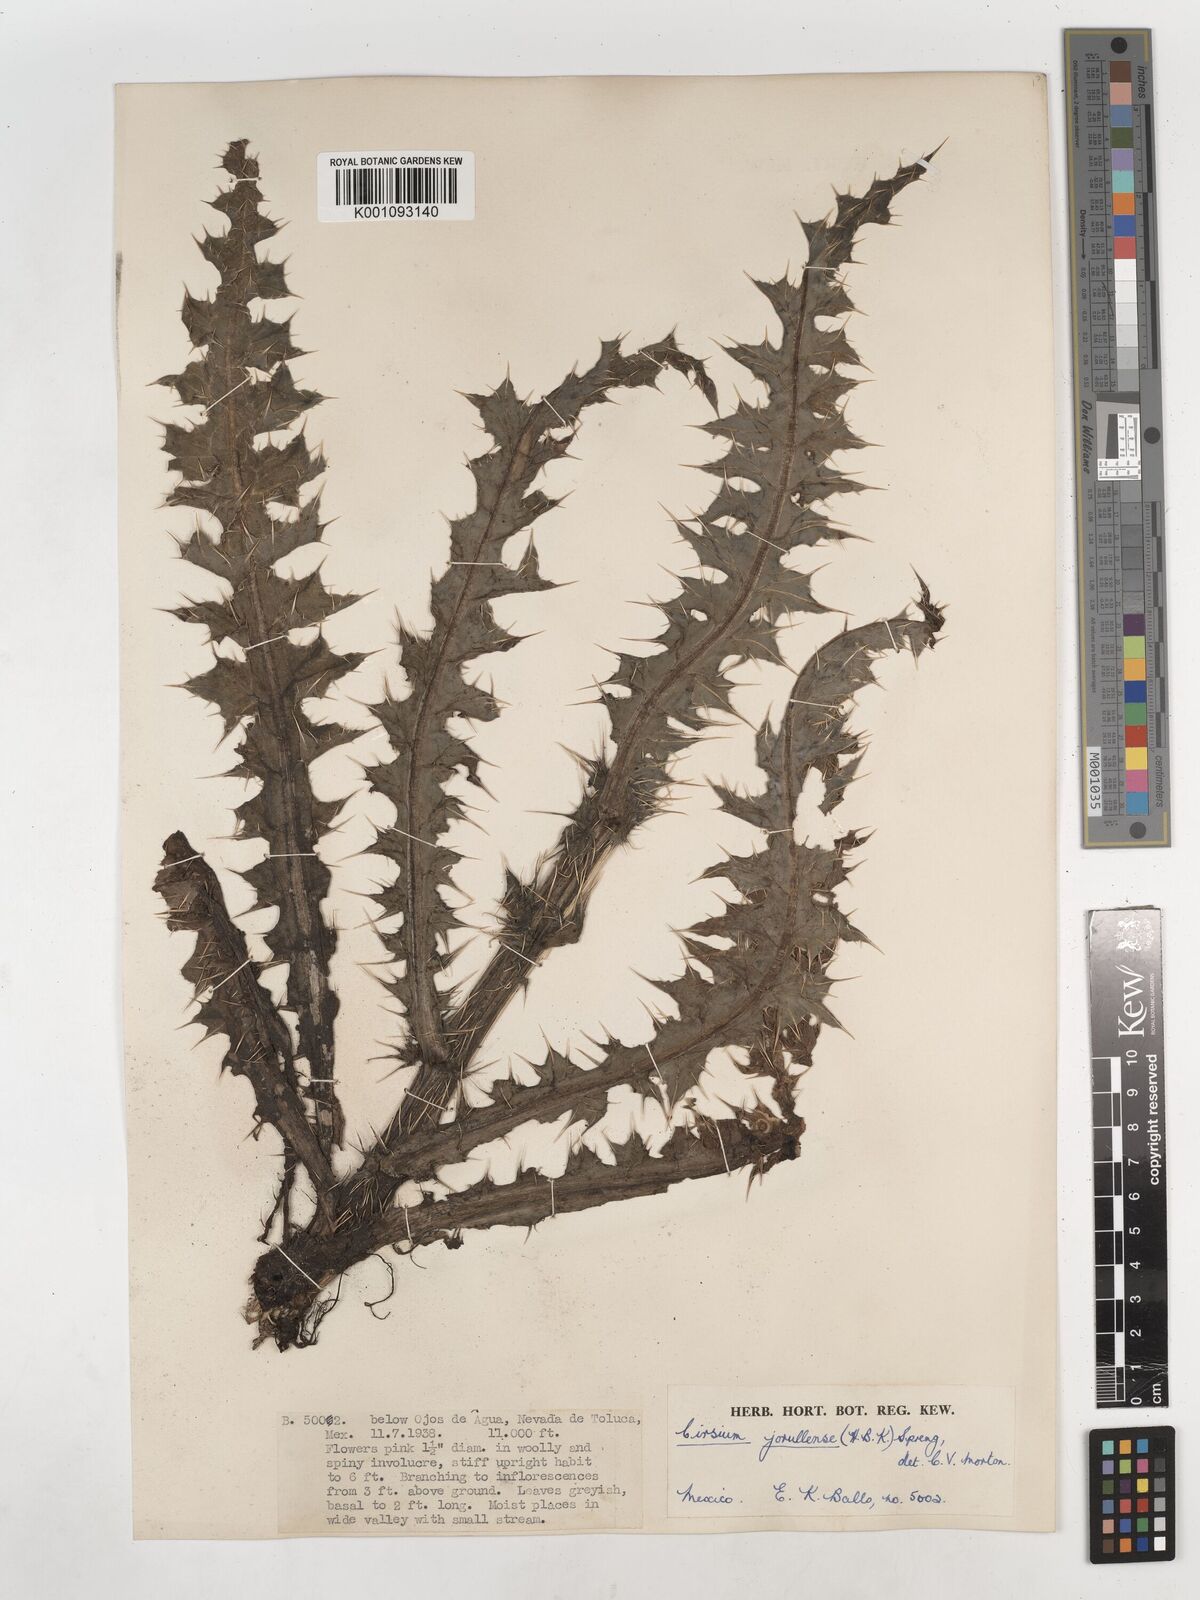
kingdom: Plantae
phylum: Tracheophyta
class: Magnoliopsida
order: Asterales
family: Asteraceae
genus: Cirsium
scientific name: Cirsium jorullense
